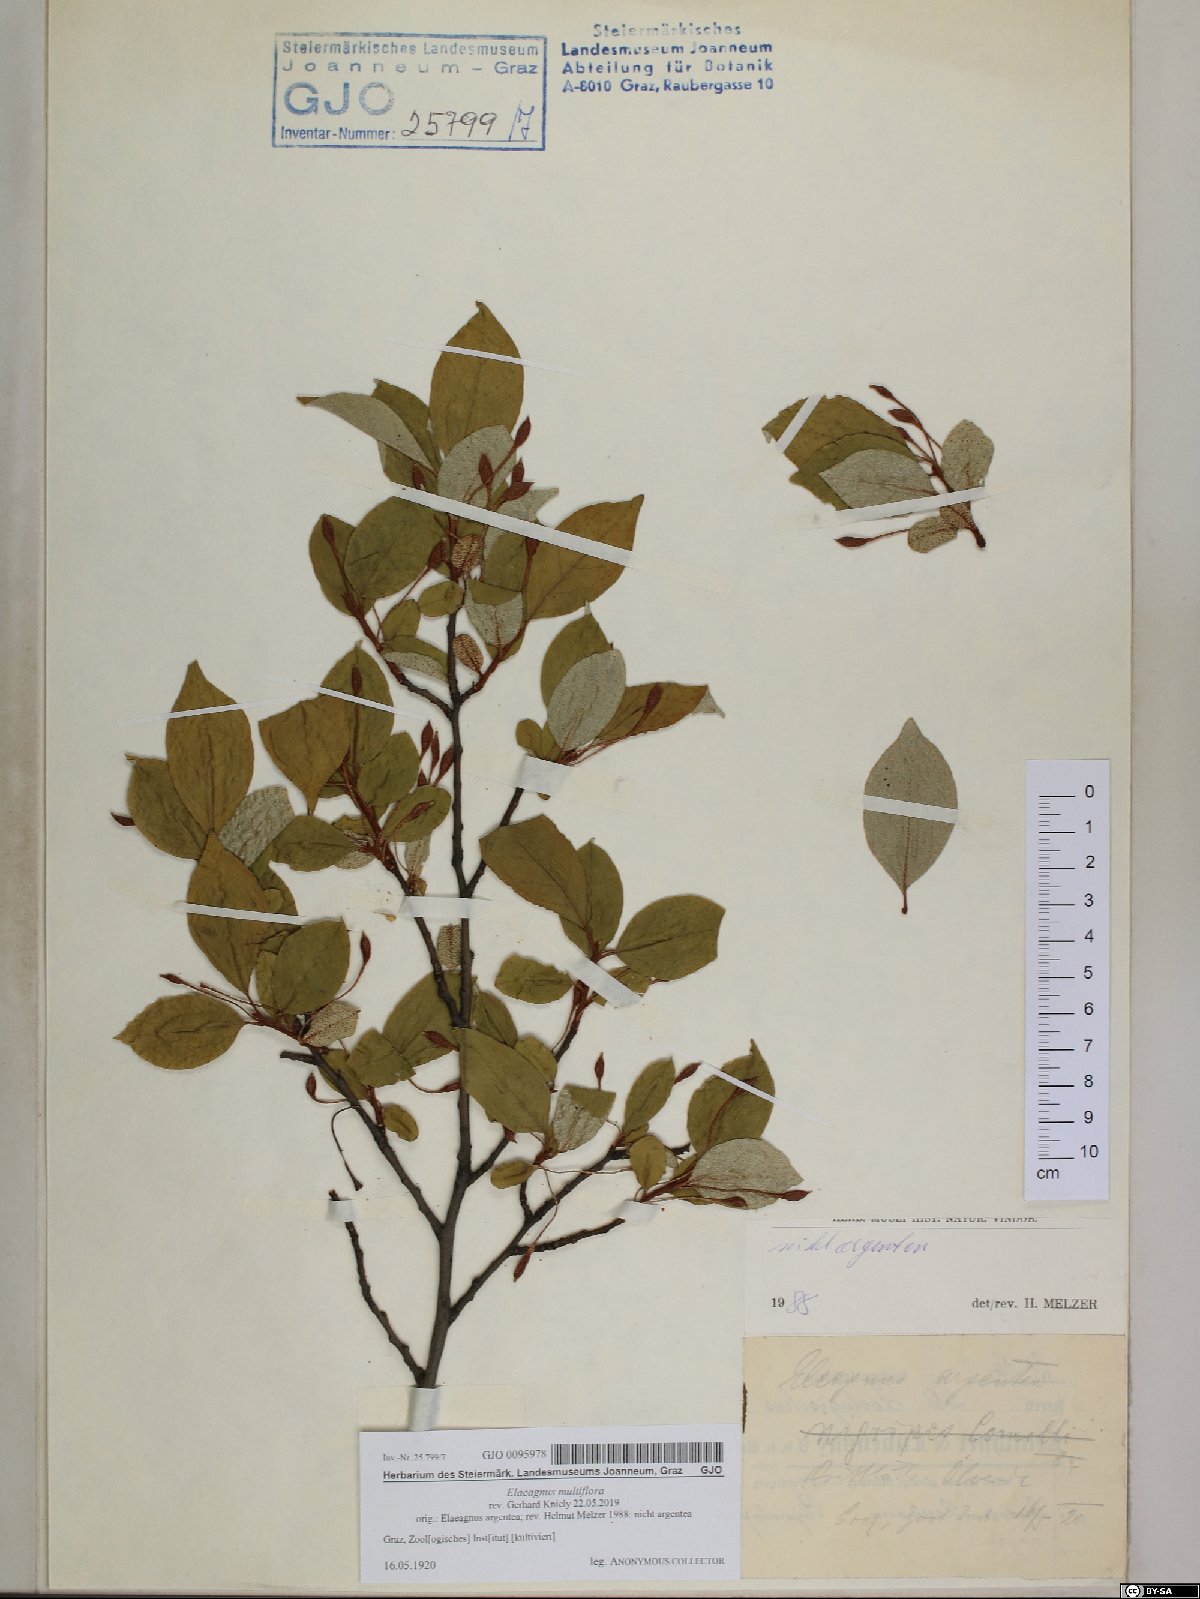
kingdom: Plantae
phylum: Tracheophyta
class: Magnoliopsida
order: Rosales
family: Elaeagnaceae
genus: Elaeagnus
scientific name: Elaeagnus multiflora
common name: Cherry elaeagnus
